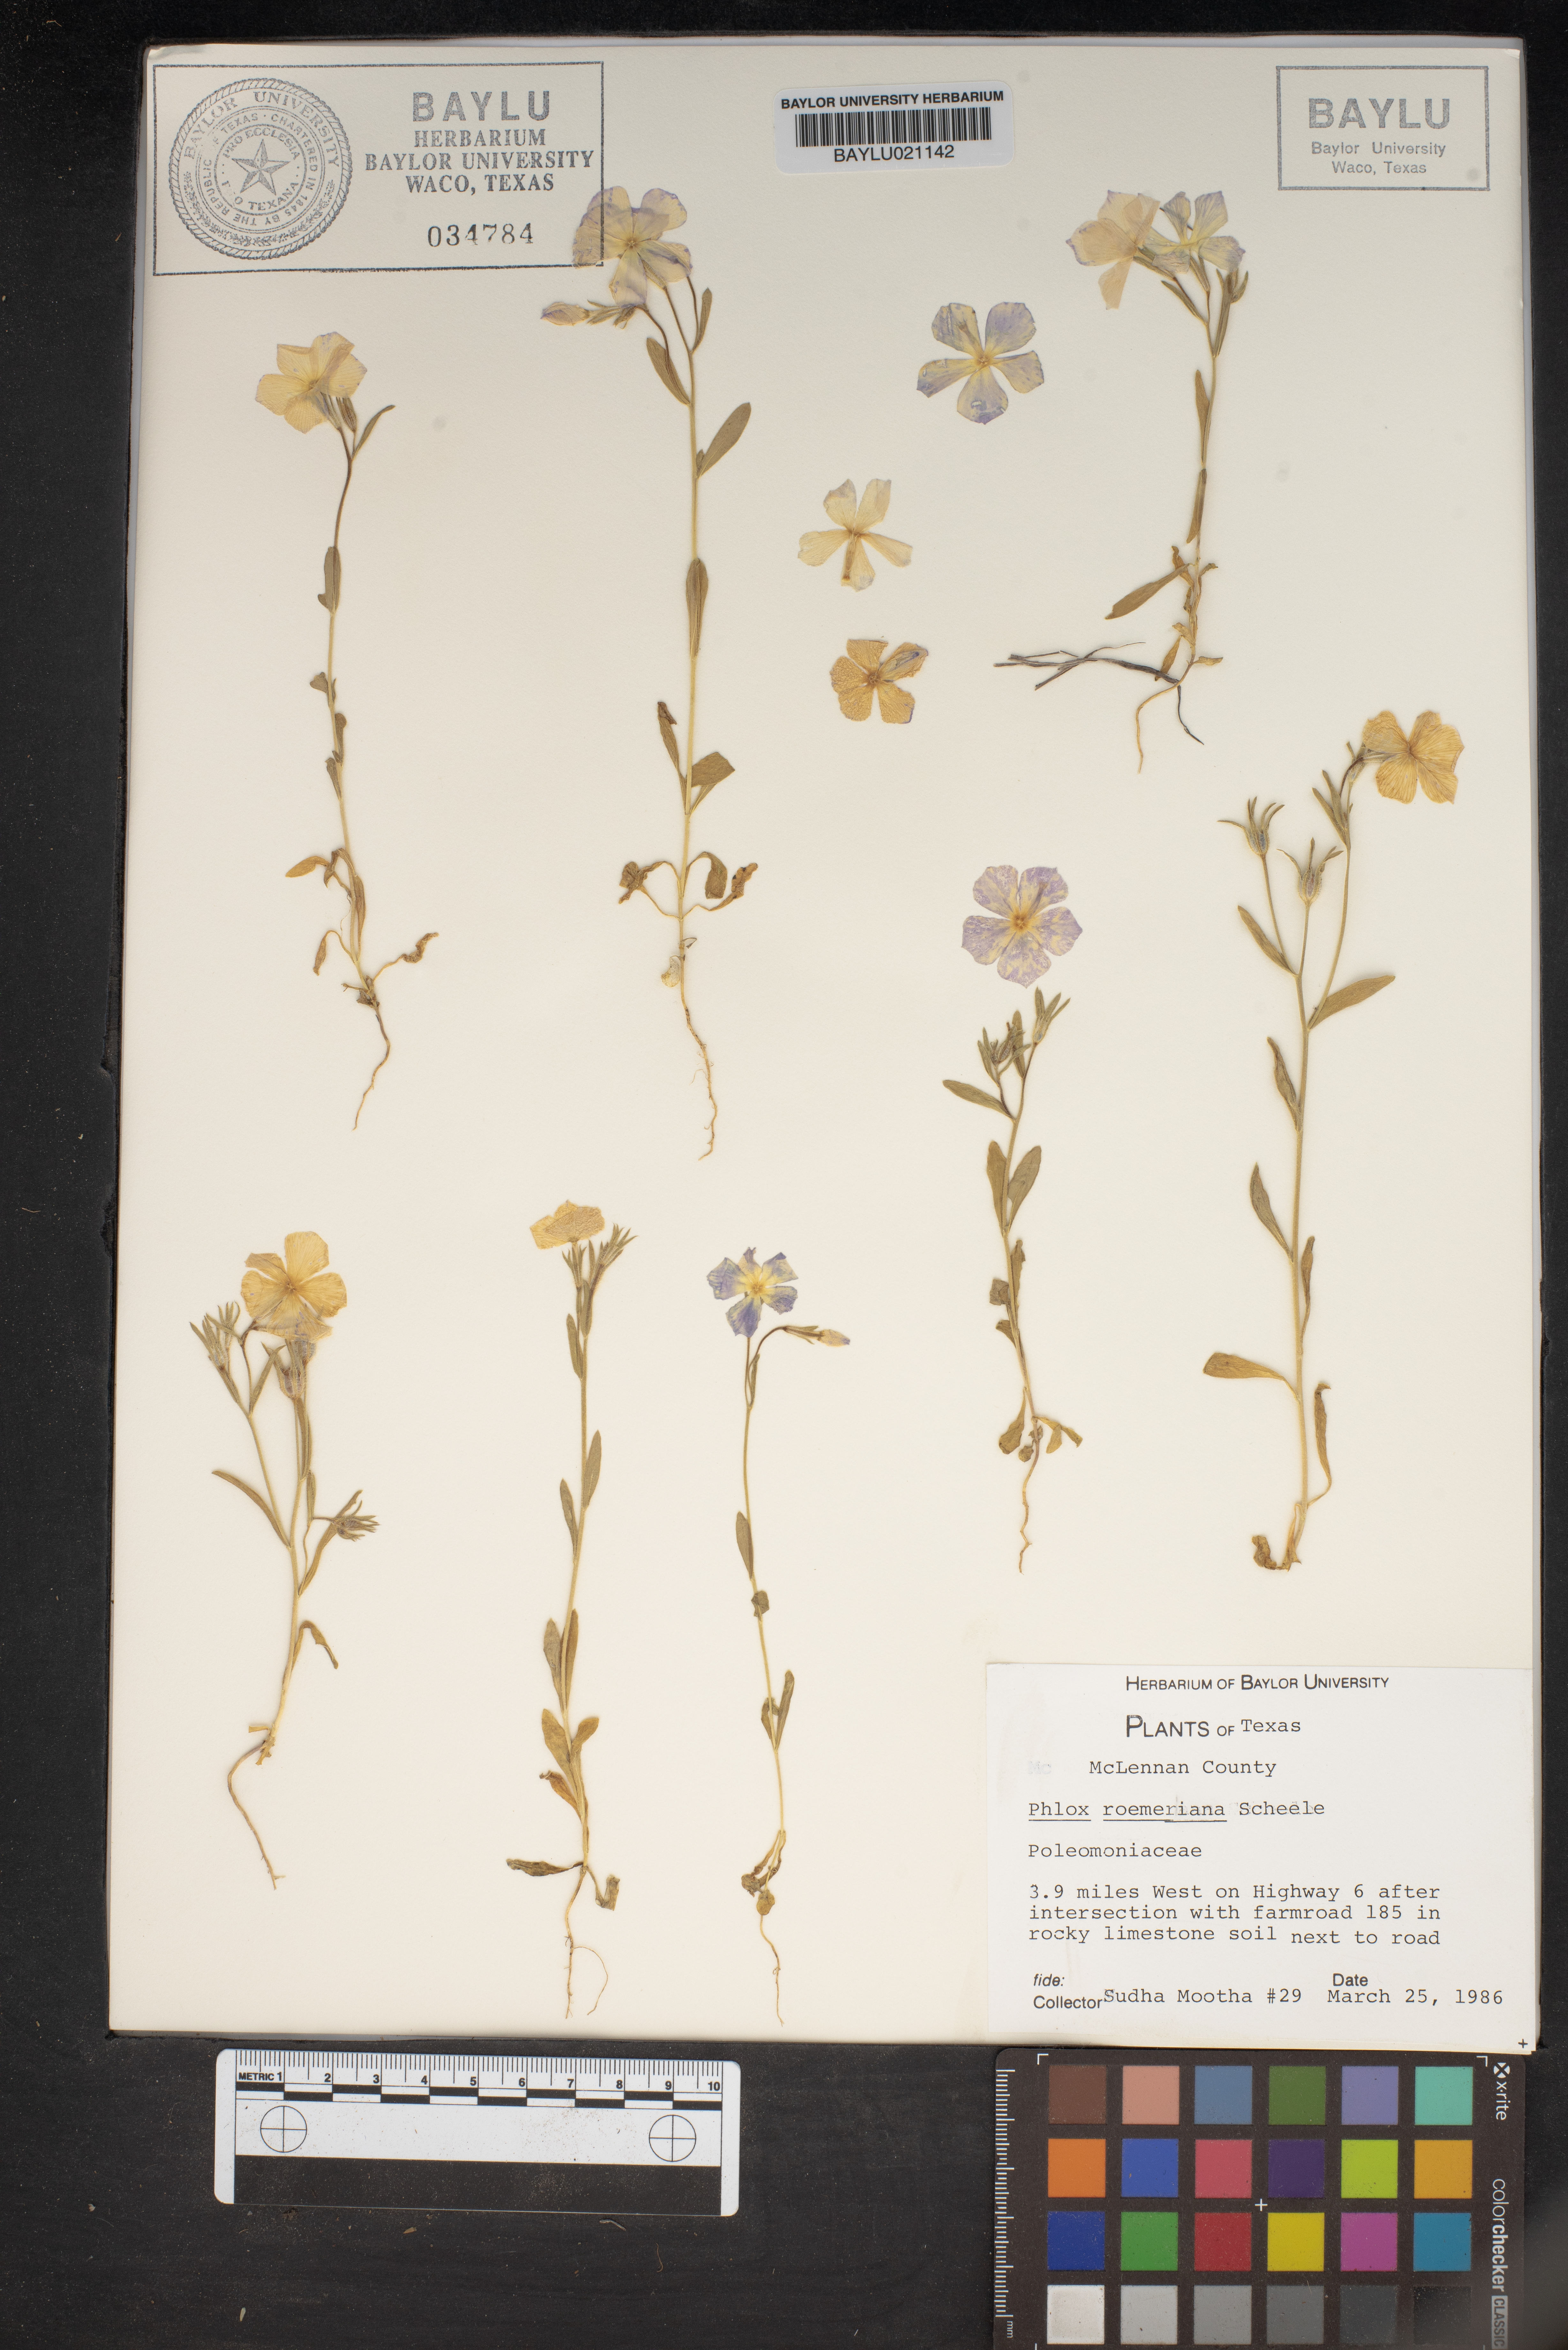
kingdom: Plantae
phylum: Tracheophyta
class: Magnoliopsida
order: Ericales
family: Polemoniaceae
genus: Phlox
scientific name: Phlox roemeriana
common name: Roemer's phlox
